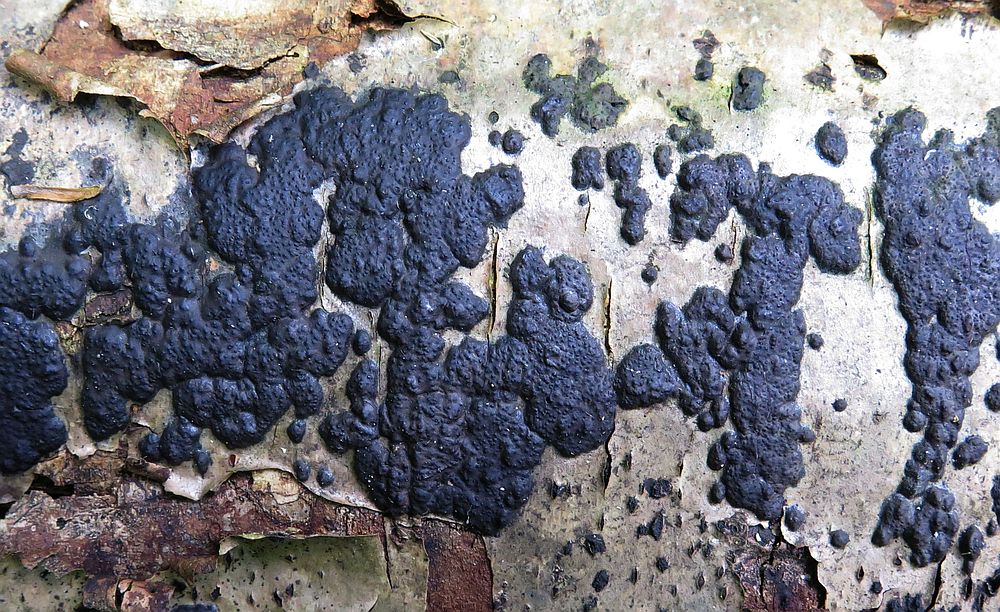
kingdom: Fungi
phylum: Ascomycota
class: Sordariomycetes
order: Xylariales
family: Xylariaceae
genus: Nemania
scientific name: Nemania diffusa
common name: brun kuldyne
